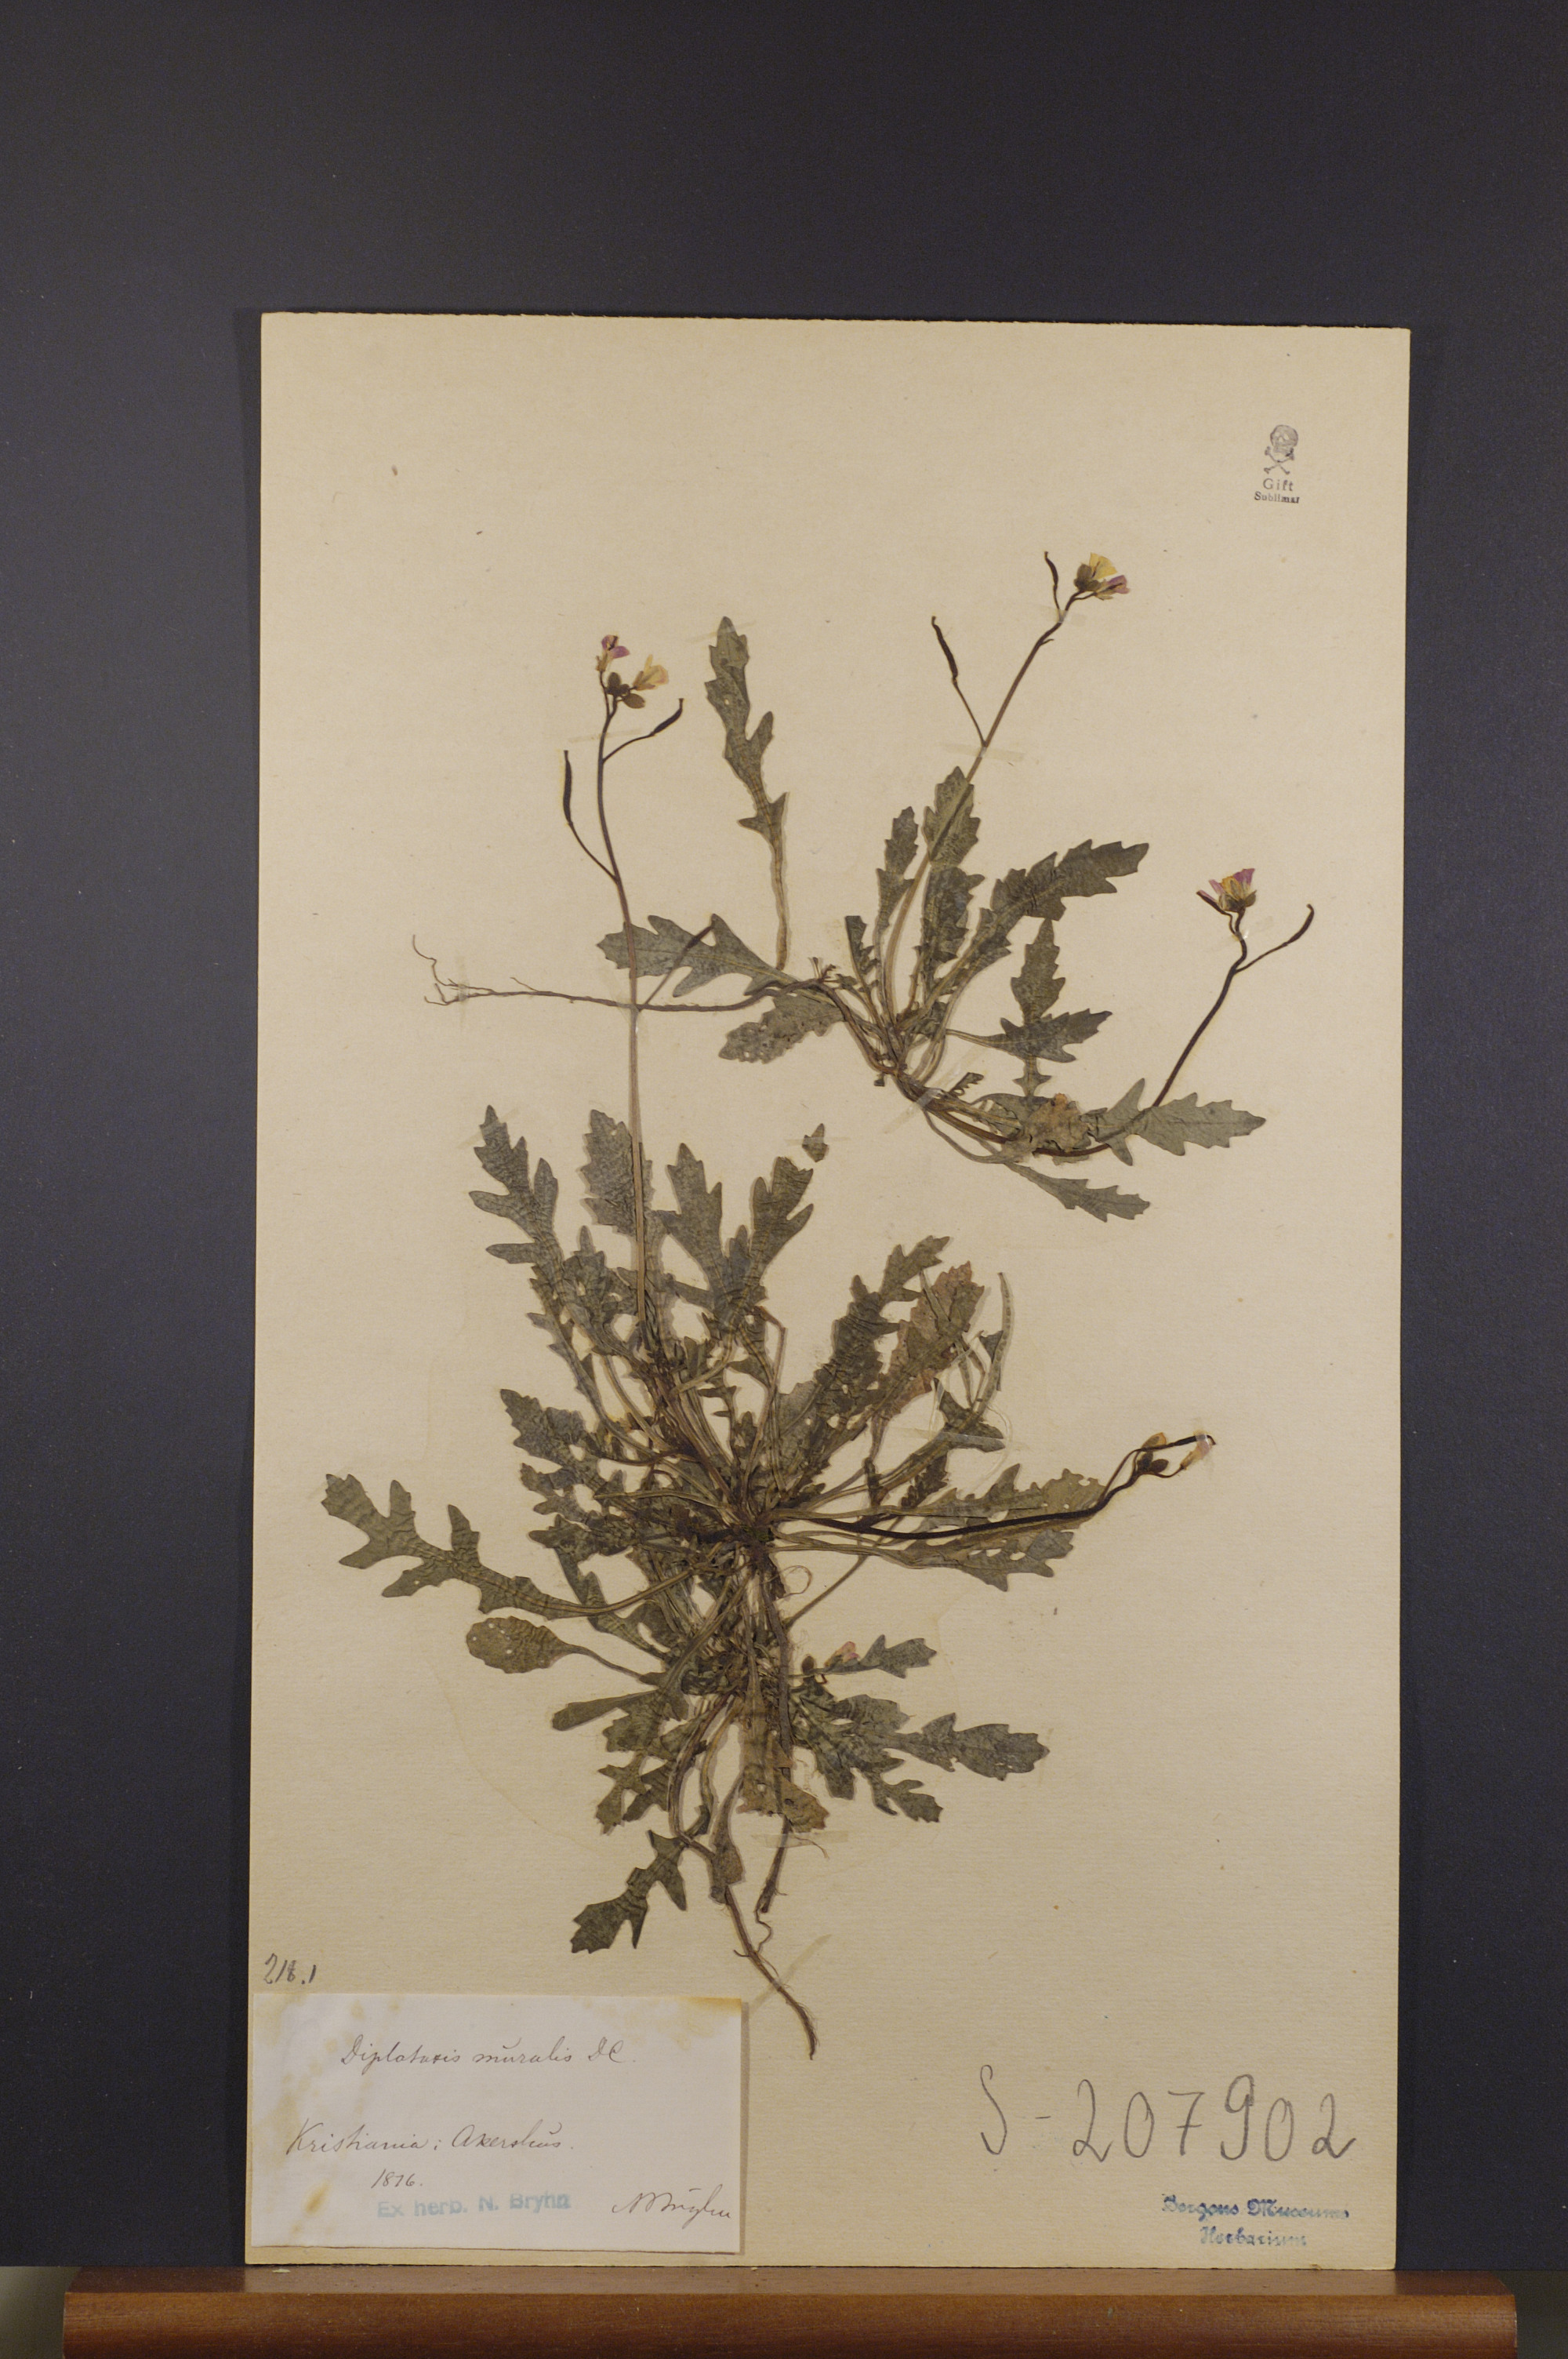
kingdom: Plantae
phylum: Tracheophyta
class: Magnoliopsida
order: Brassicales
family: Brassicaceae
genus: Diplotaxis
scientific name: Diplotaxis muralis
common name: Annual wall-rocket
